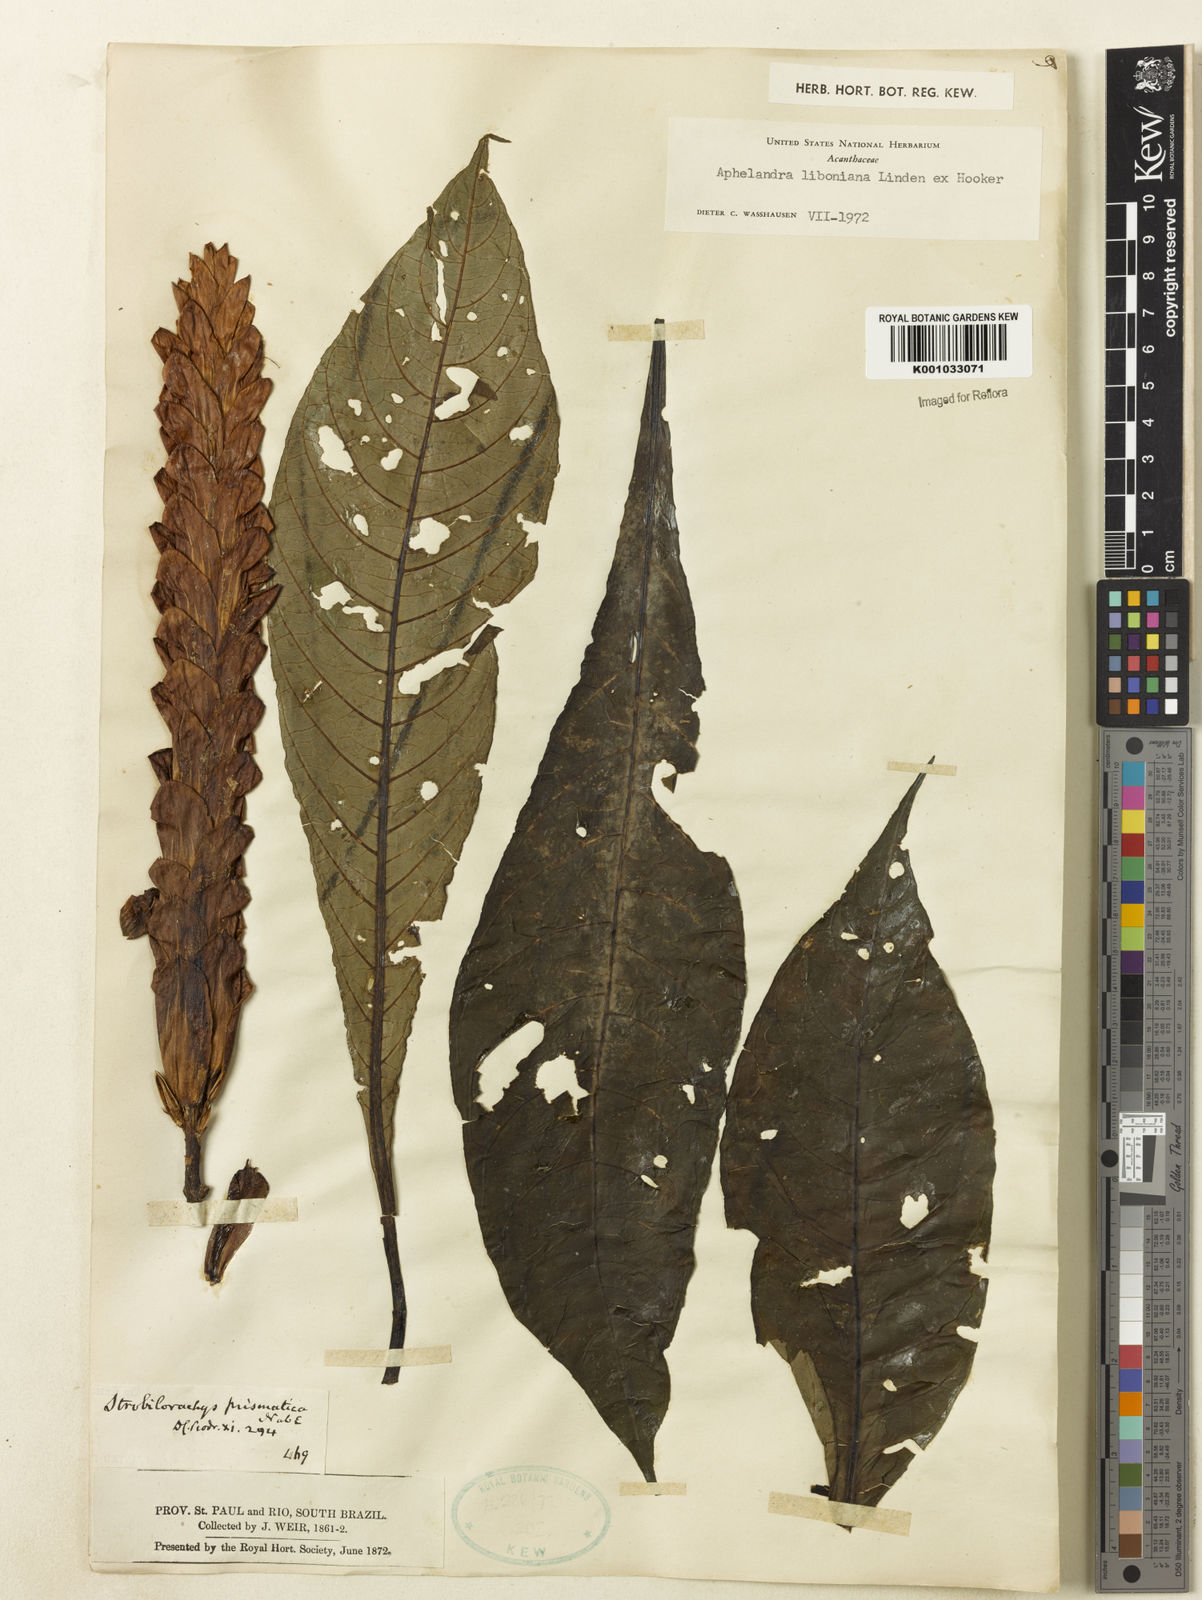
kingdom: Plantae
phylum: Tracheophyta
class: Magnoliopsida
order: Lamiales
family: Acanthaceae
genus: Aphelandra
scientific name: Aphelandra liboniana
